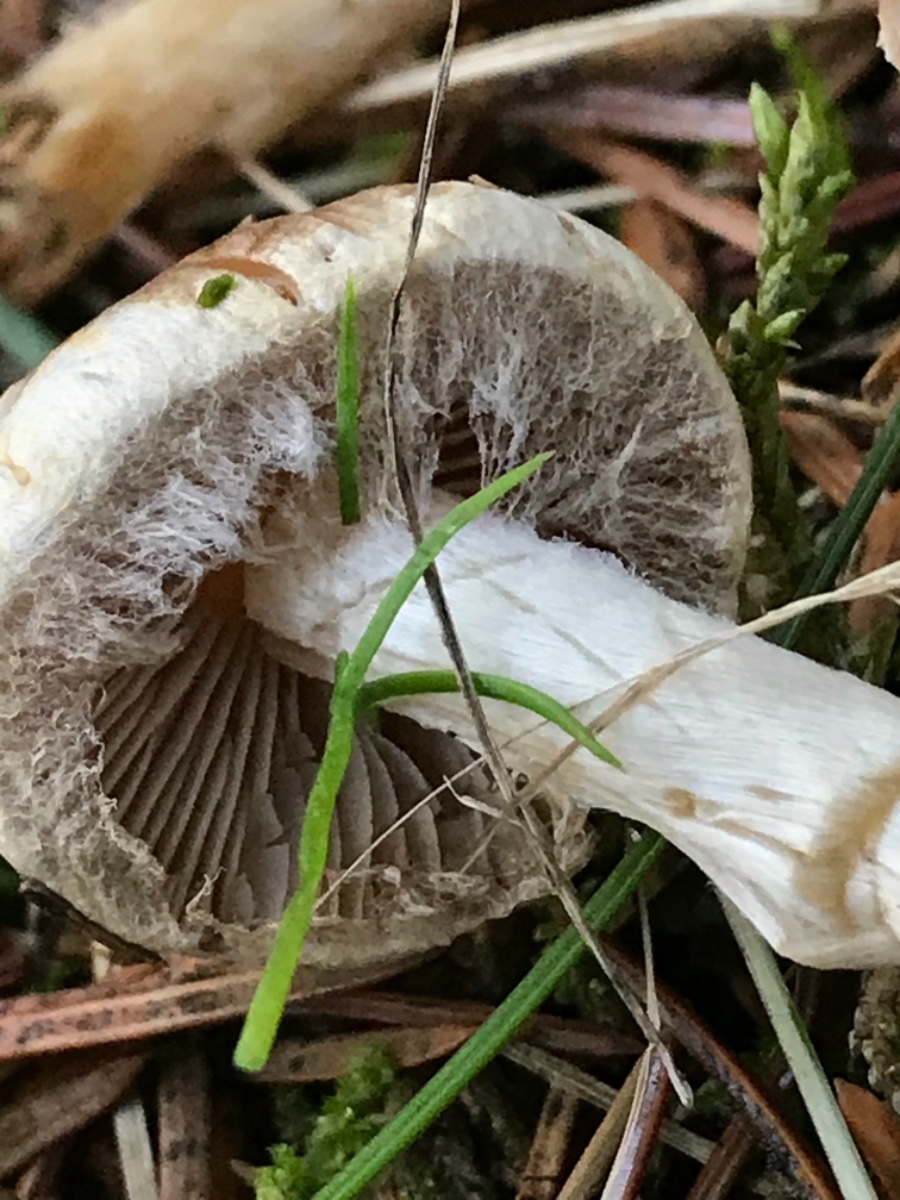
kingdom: Fungi
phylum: Basidiomycota
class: Agaricomycetes
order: Agaricales
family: Hymenogastraceae
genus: Hebeloma
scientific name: Hebeloma
